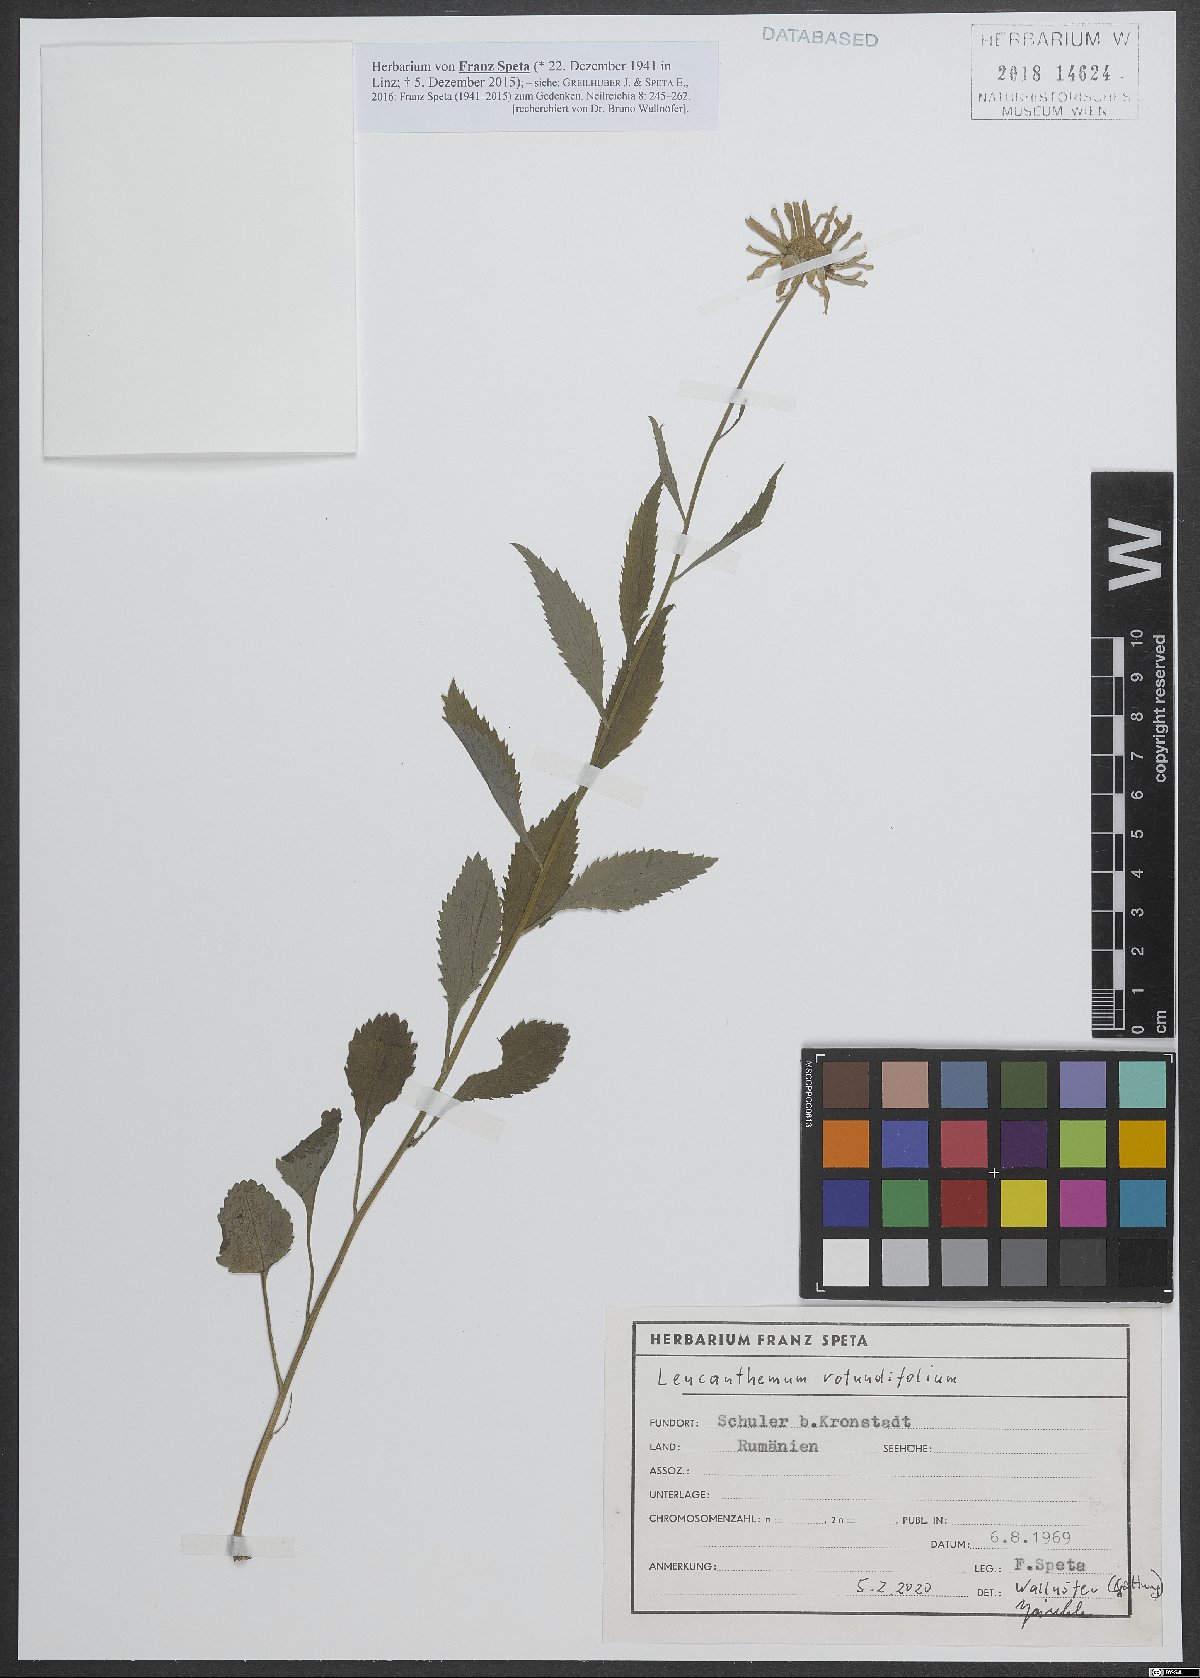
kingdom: Plantae
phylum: Tracheophyta
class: Magnoliopsida
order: Asterales
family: Asteraceae
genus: Leucanthemum
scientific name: Leucanthemum rotundifolium
